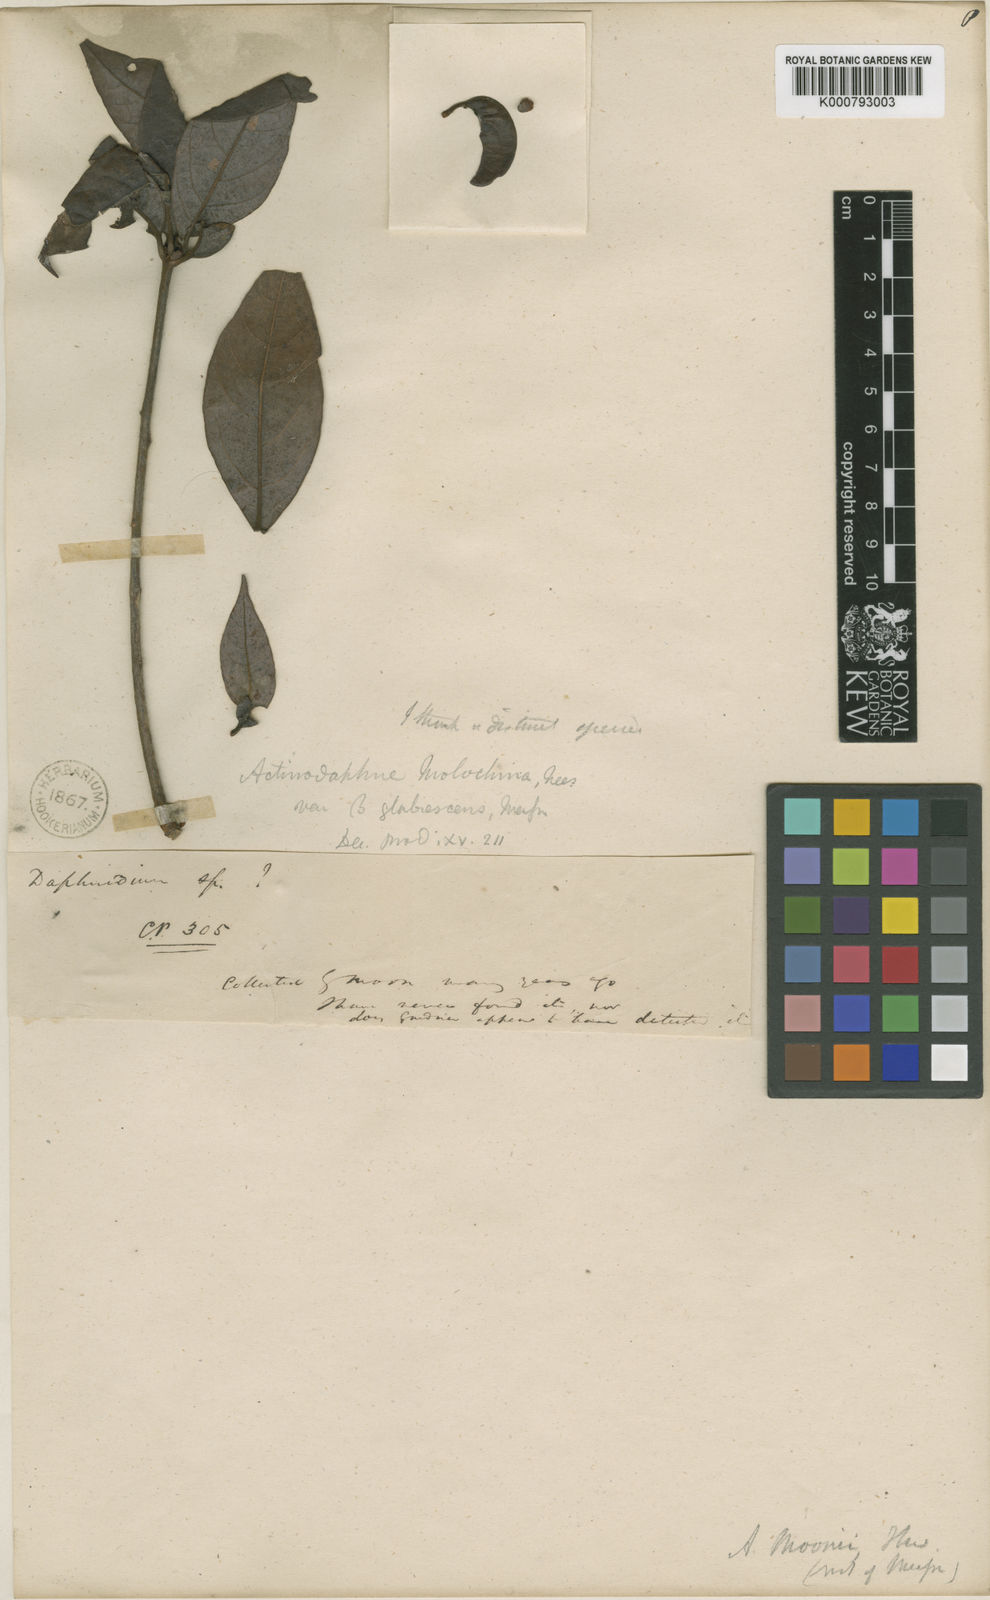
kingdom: Plantae
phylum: Tracheophyta
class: Magnoliopsida
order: Laurales
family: Lauraceae
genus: Actinodaphne
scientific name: Actinodaphne molochina
